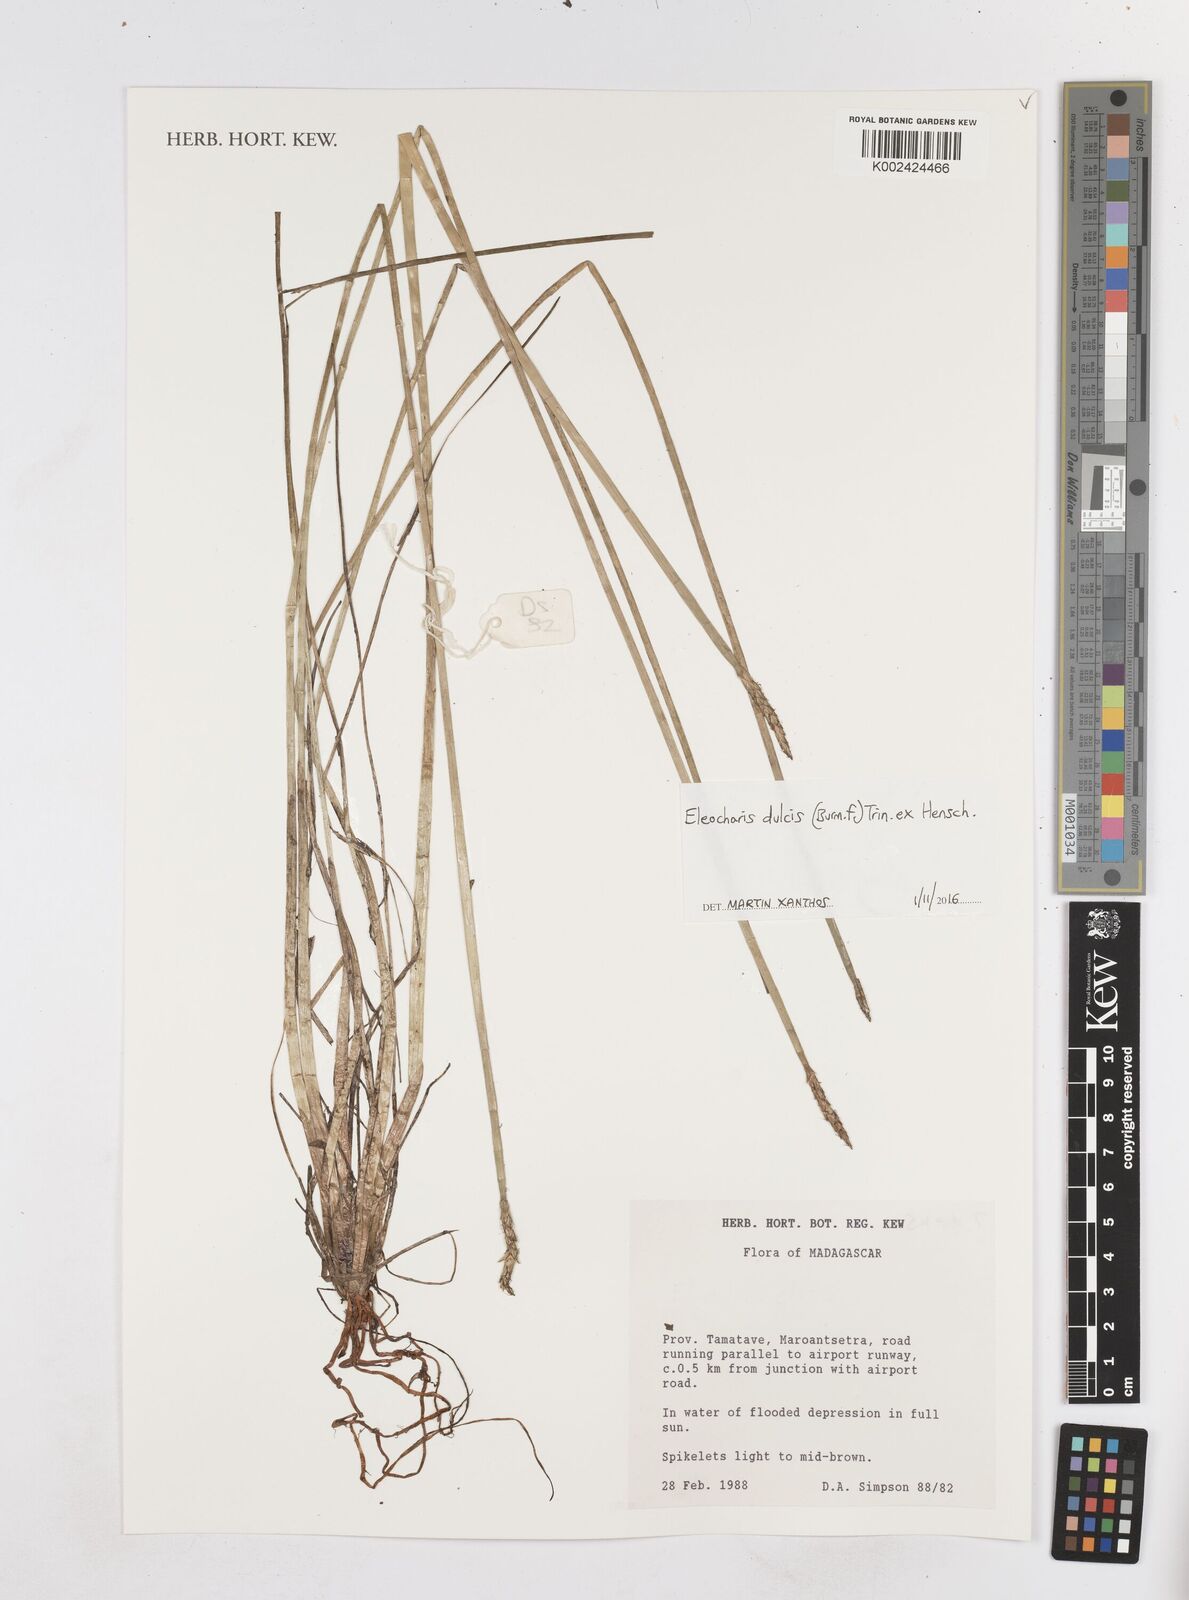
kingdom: Plantae
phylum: Tracheophyta
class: Liliopsida
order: Poales
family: Cyperaceae
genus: Eleocharis
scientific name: Eleocharis dulcis
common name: Chinese water chestnut
